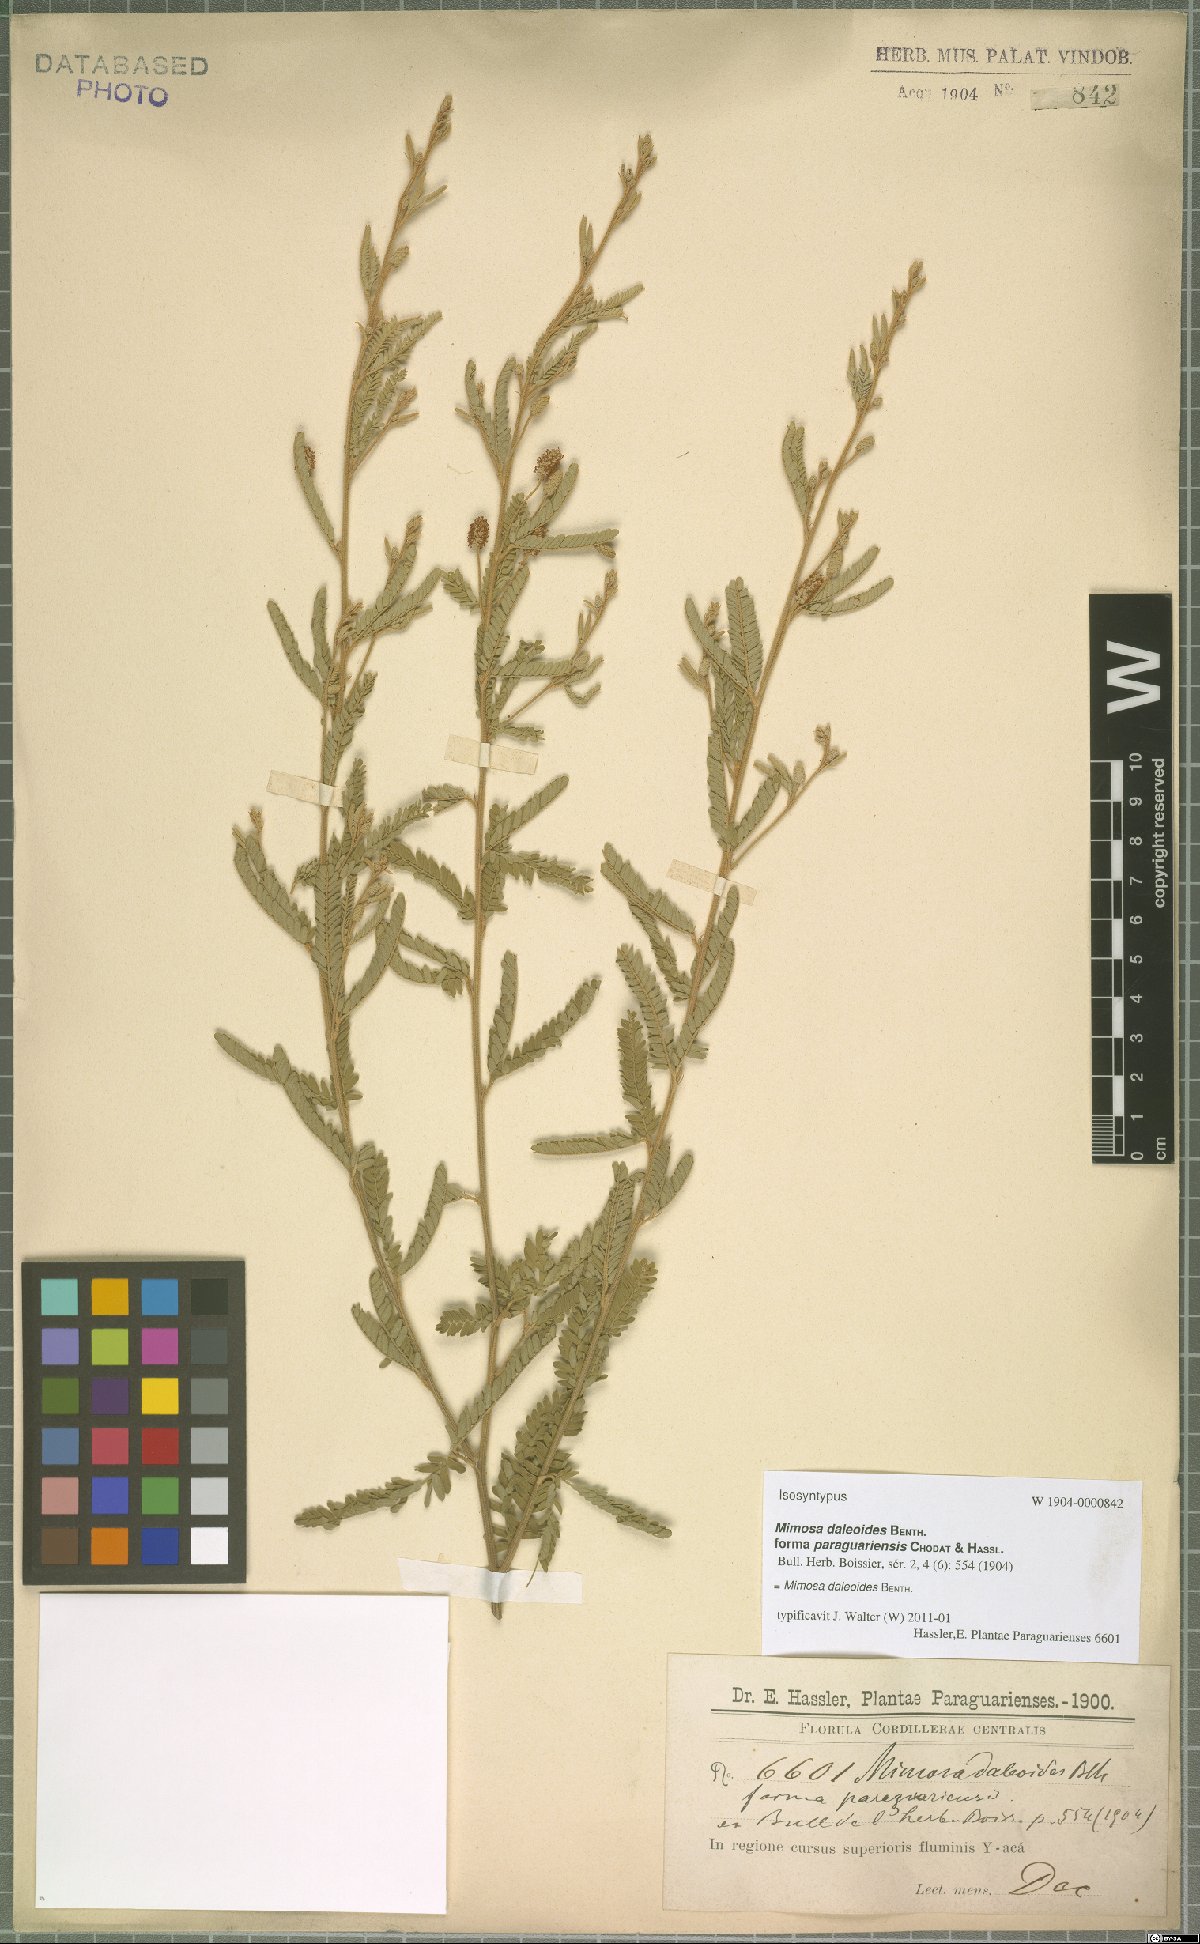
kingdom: Plantae
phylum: Tracheophyta
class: Magnoliopsida
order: Fabales
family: Fabaceae
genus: Mimosa
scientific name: Mimosa daleoides
